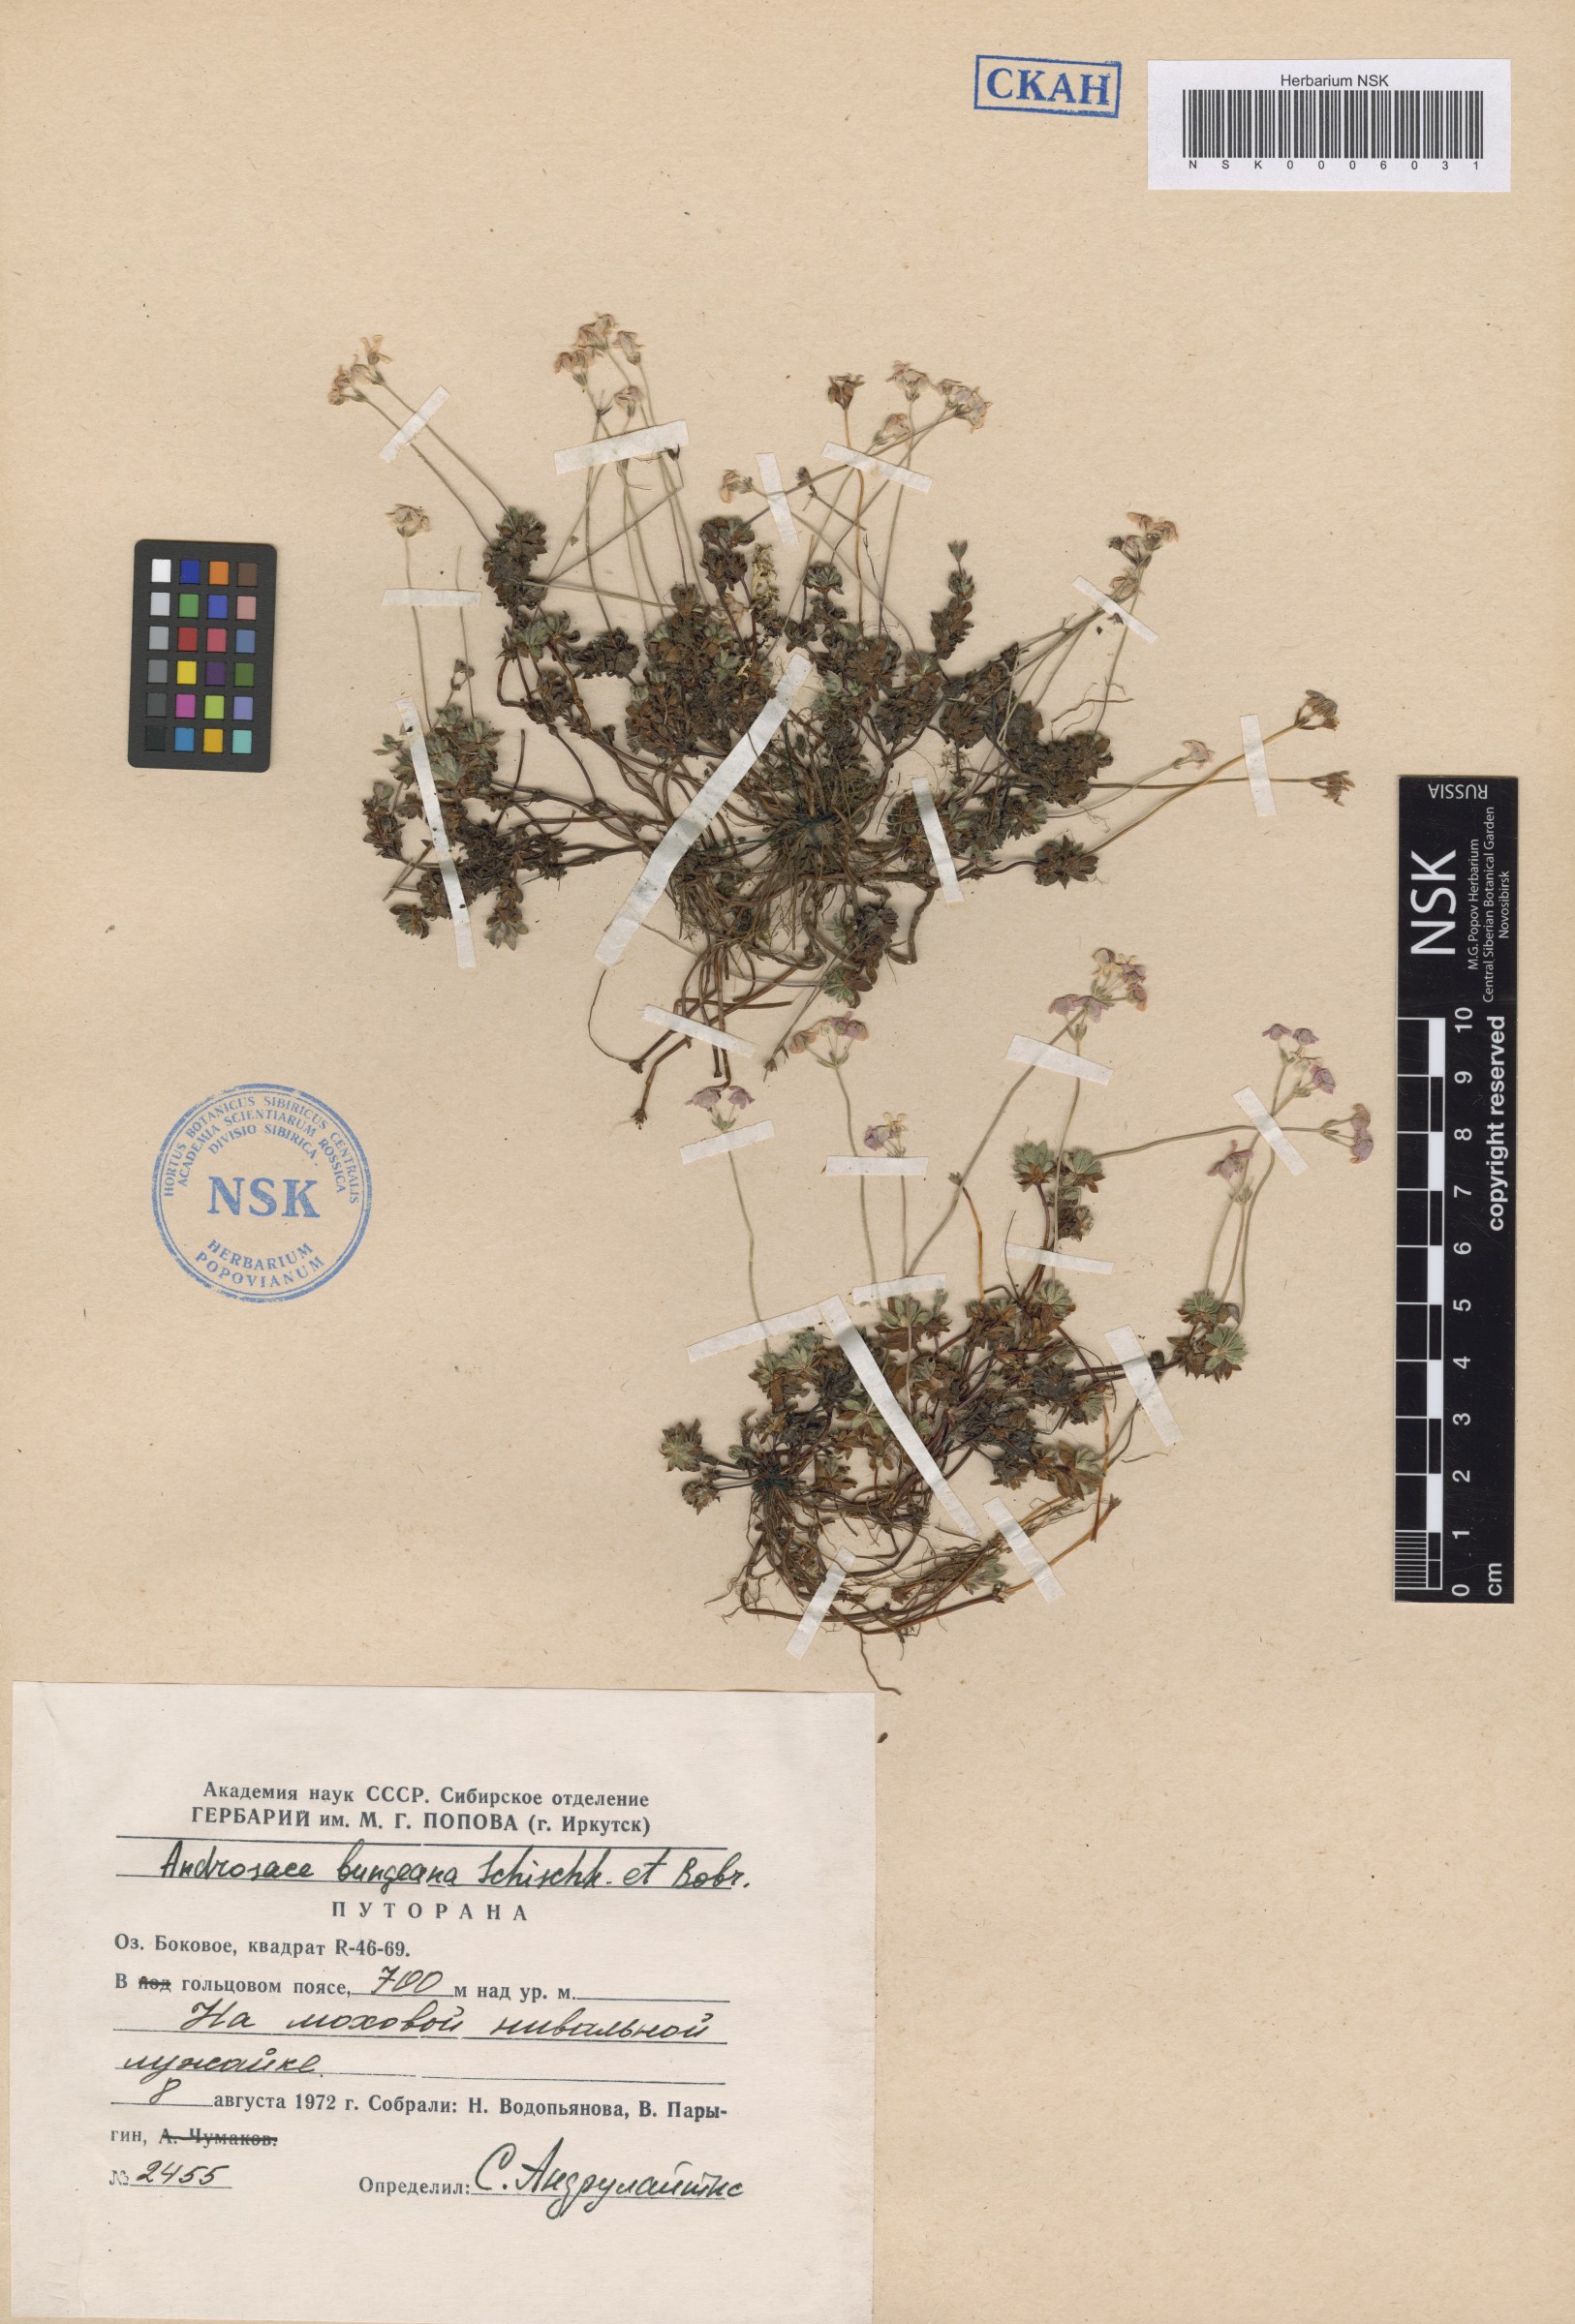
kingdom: Plantae
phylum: Tracheophyta
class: Magnoliopsida
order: Ericales
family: Primulaceae
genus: Androsace
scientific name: Androsace bungeana
